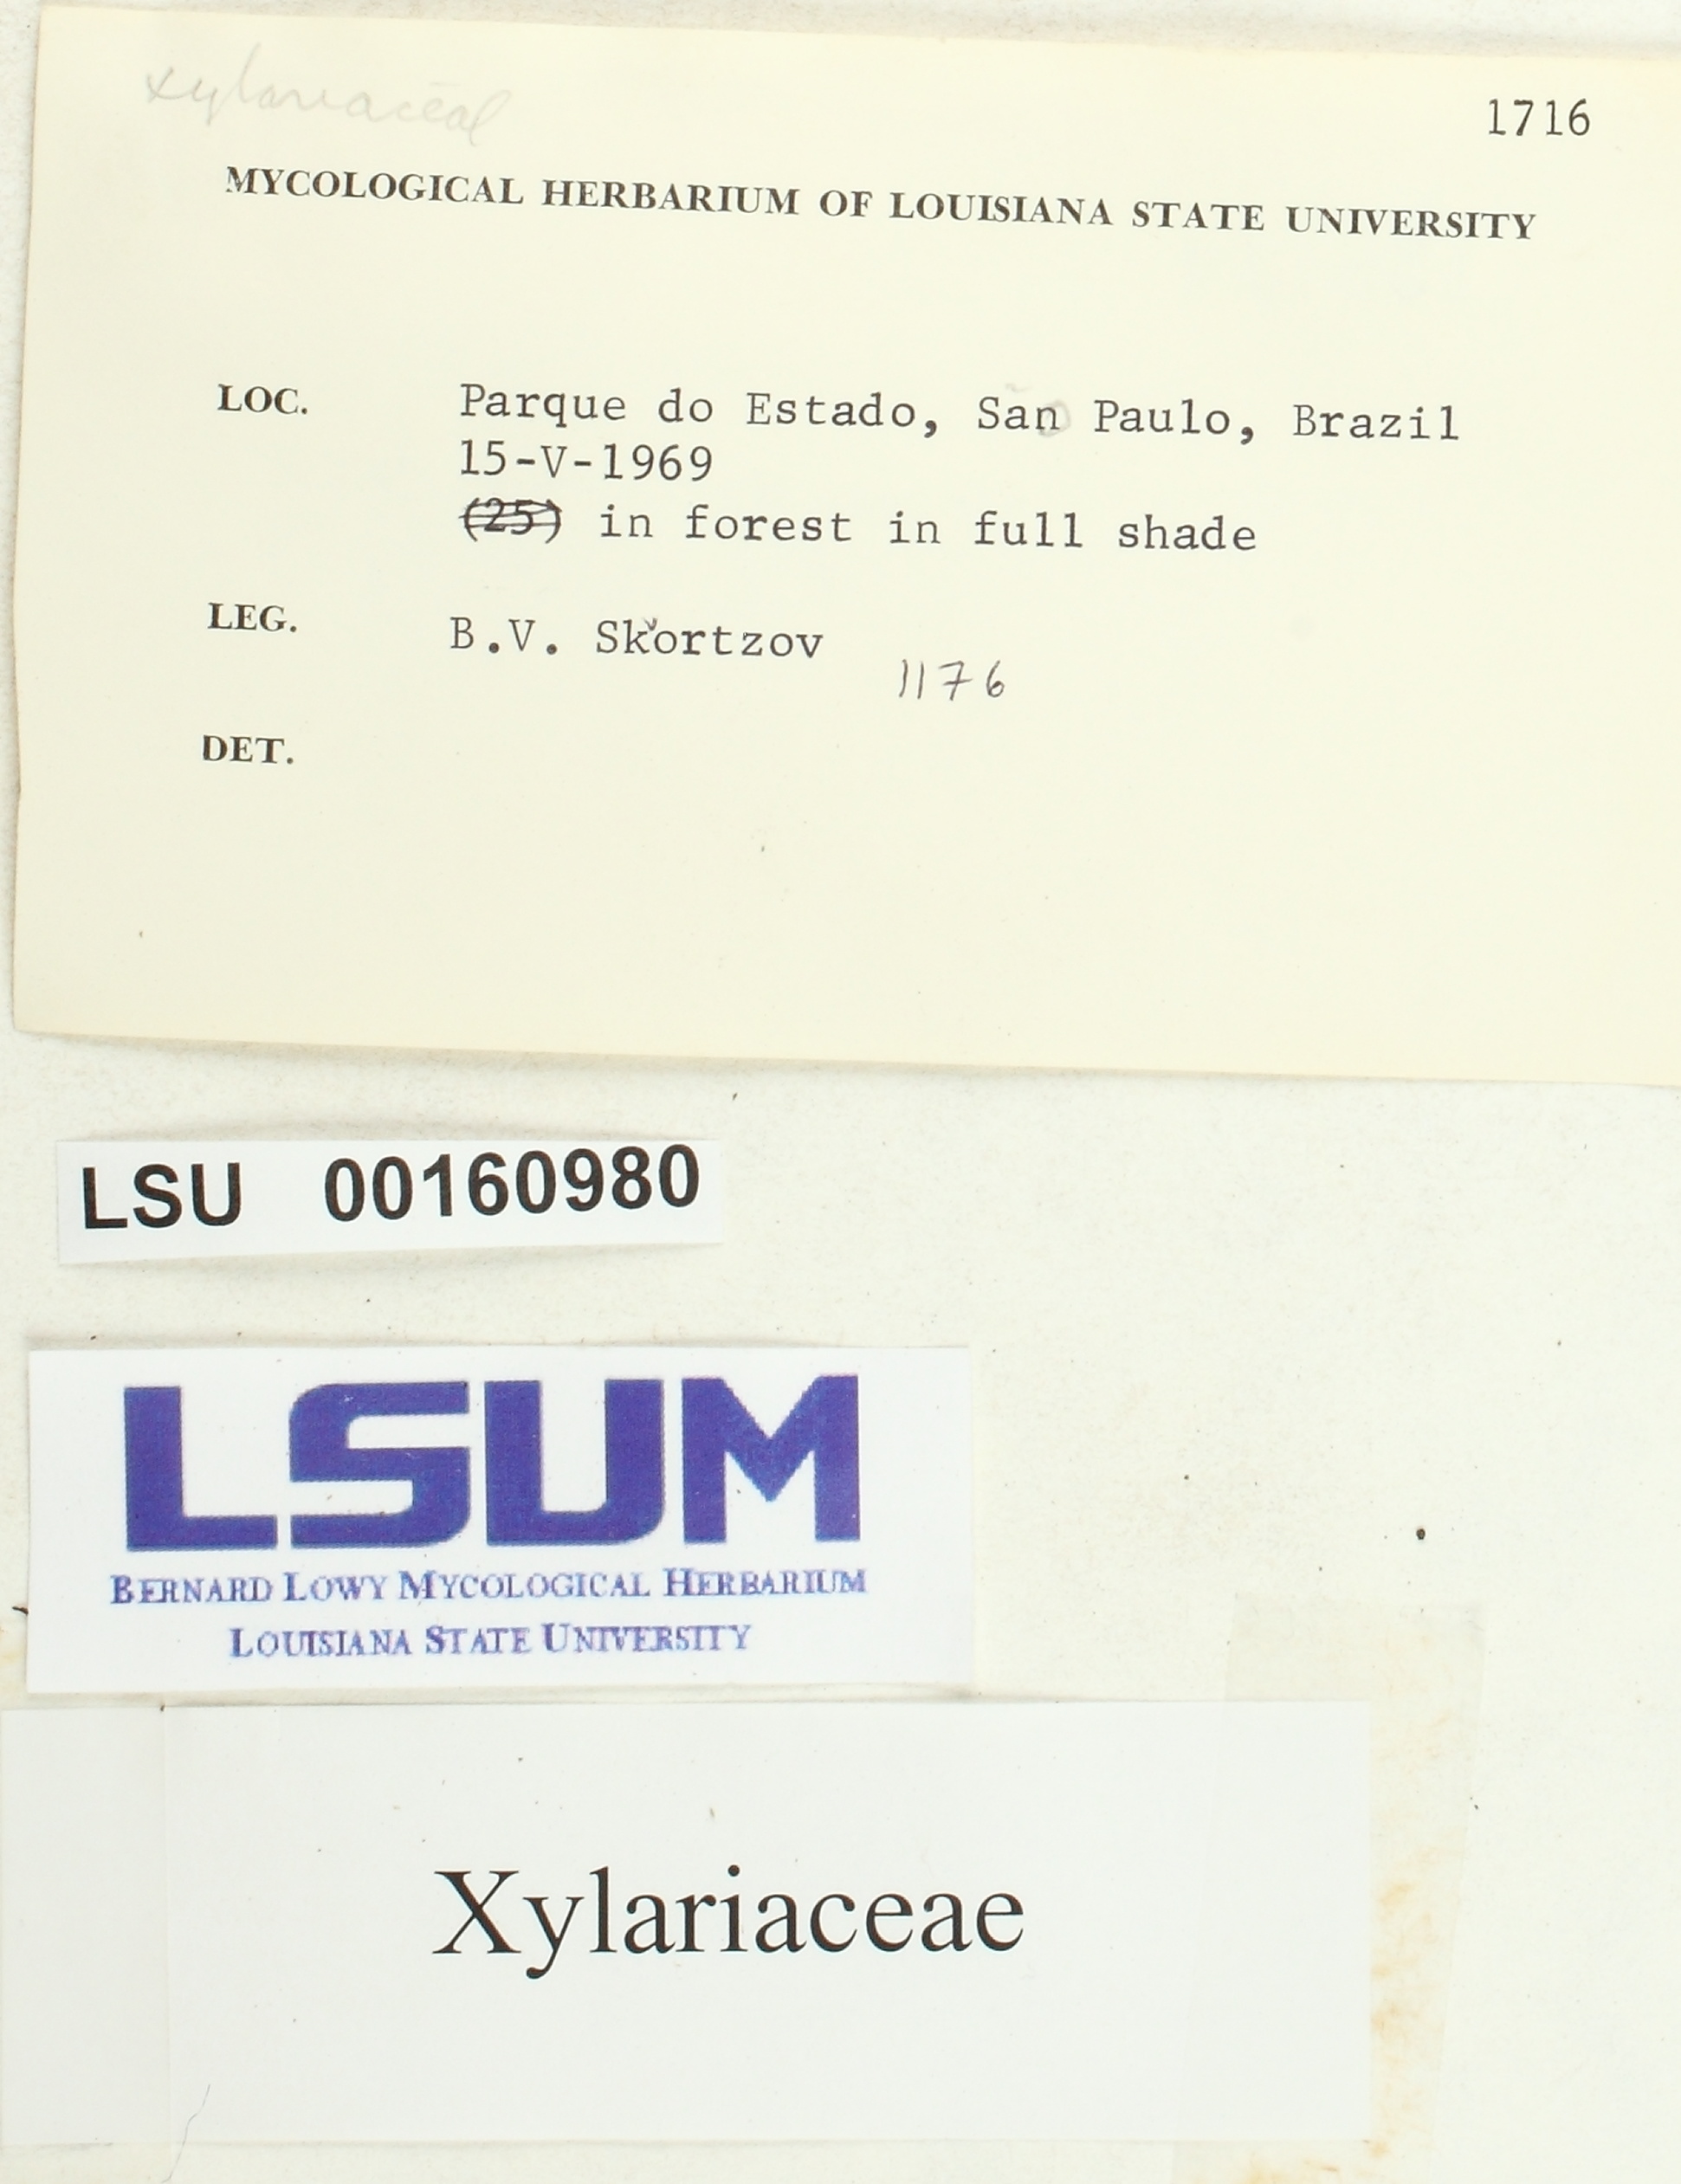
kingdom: Fungi
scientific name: Fungi
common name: Fungi
